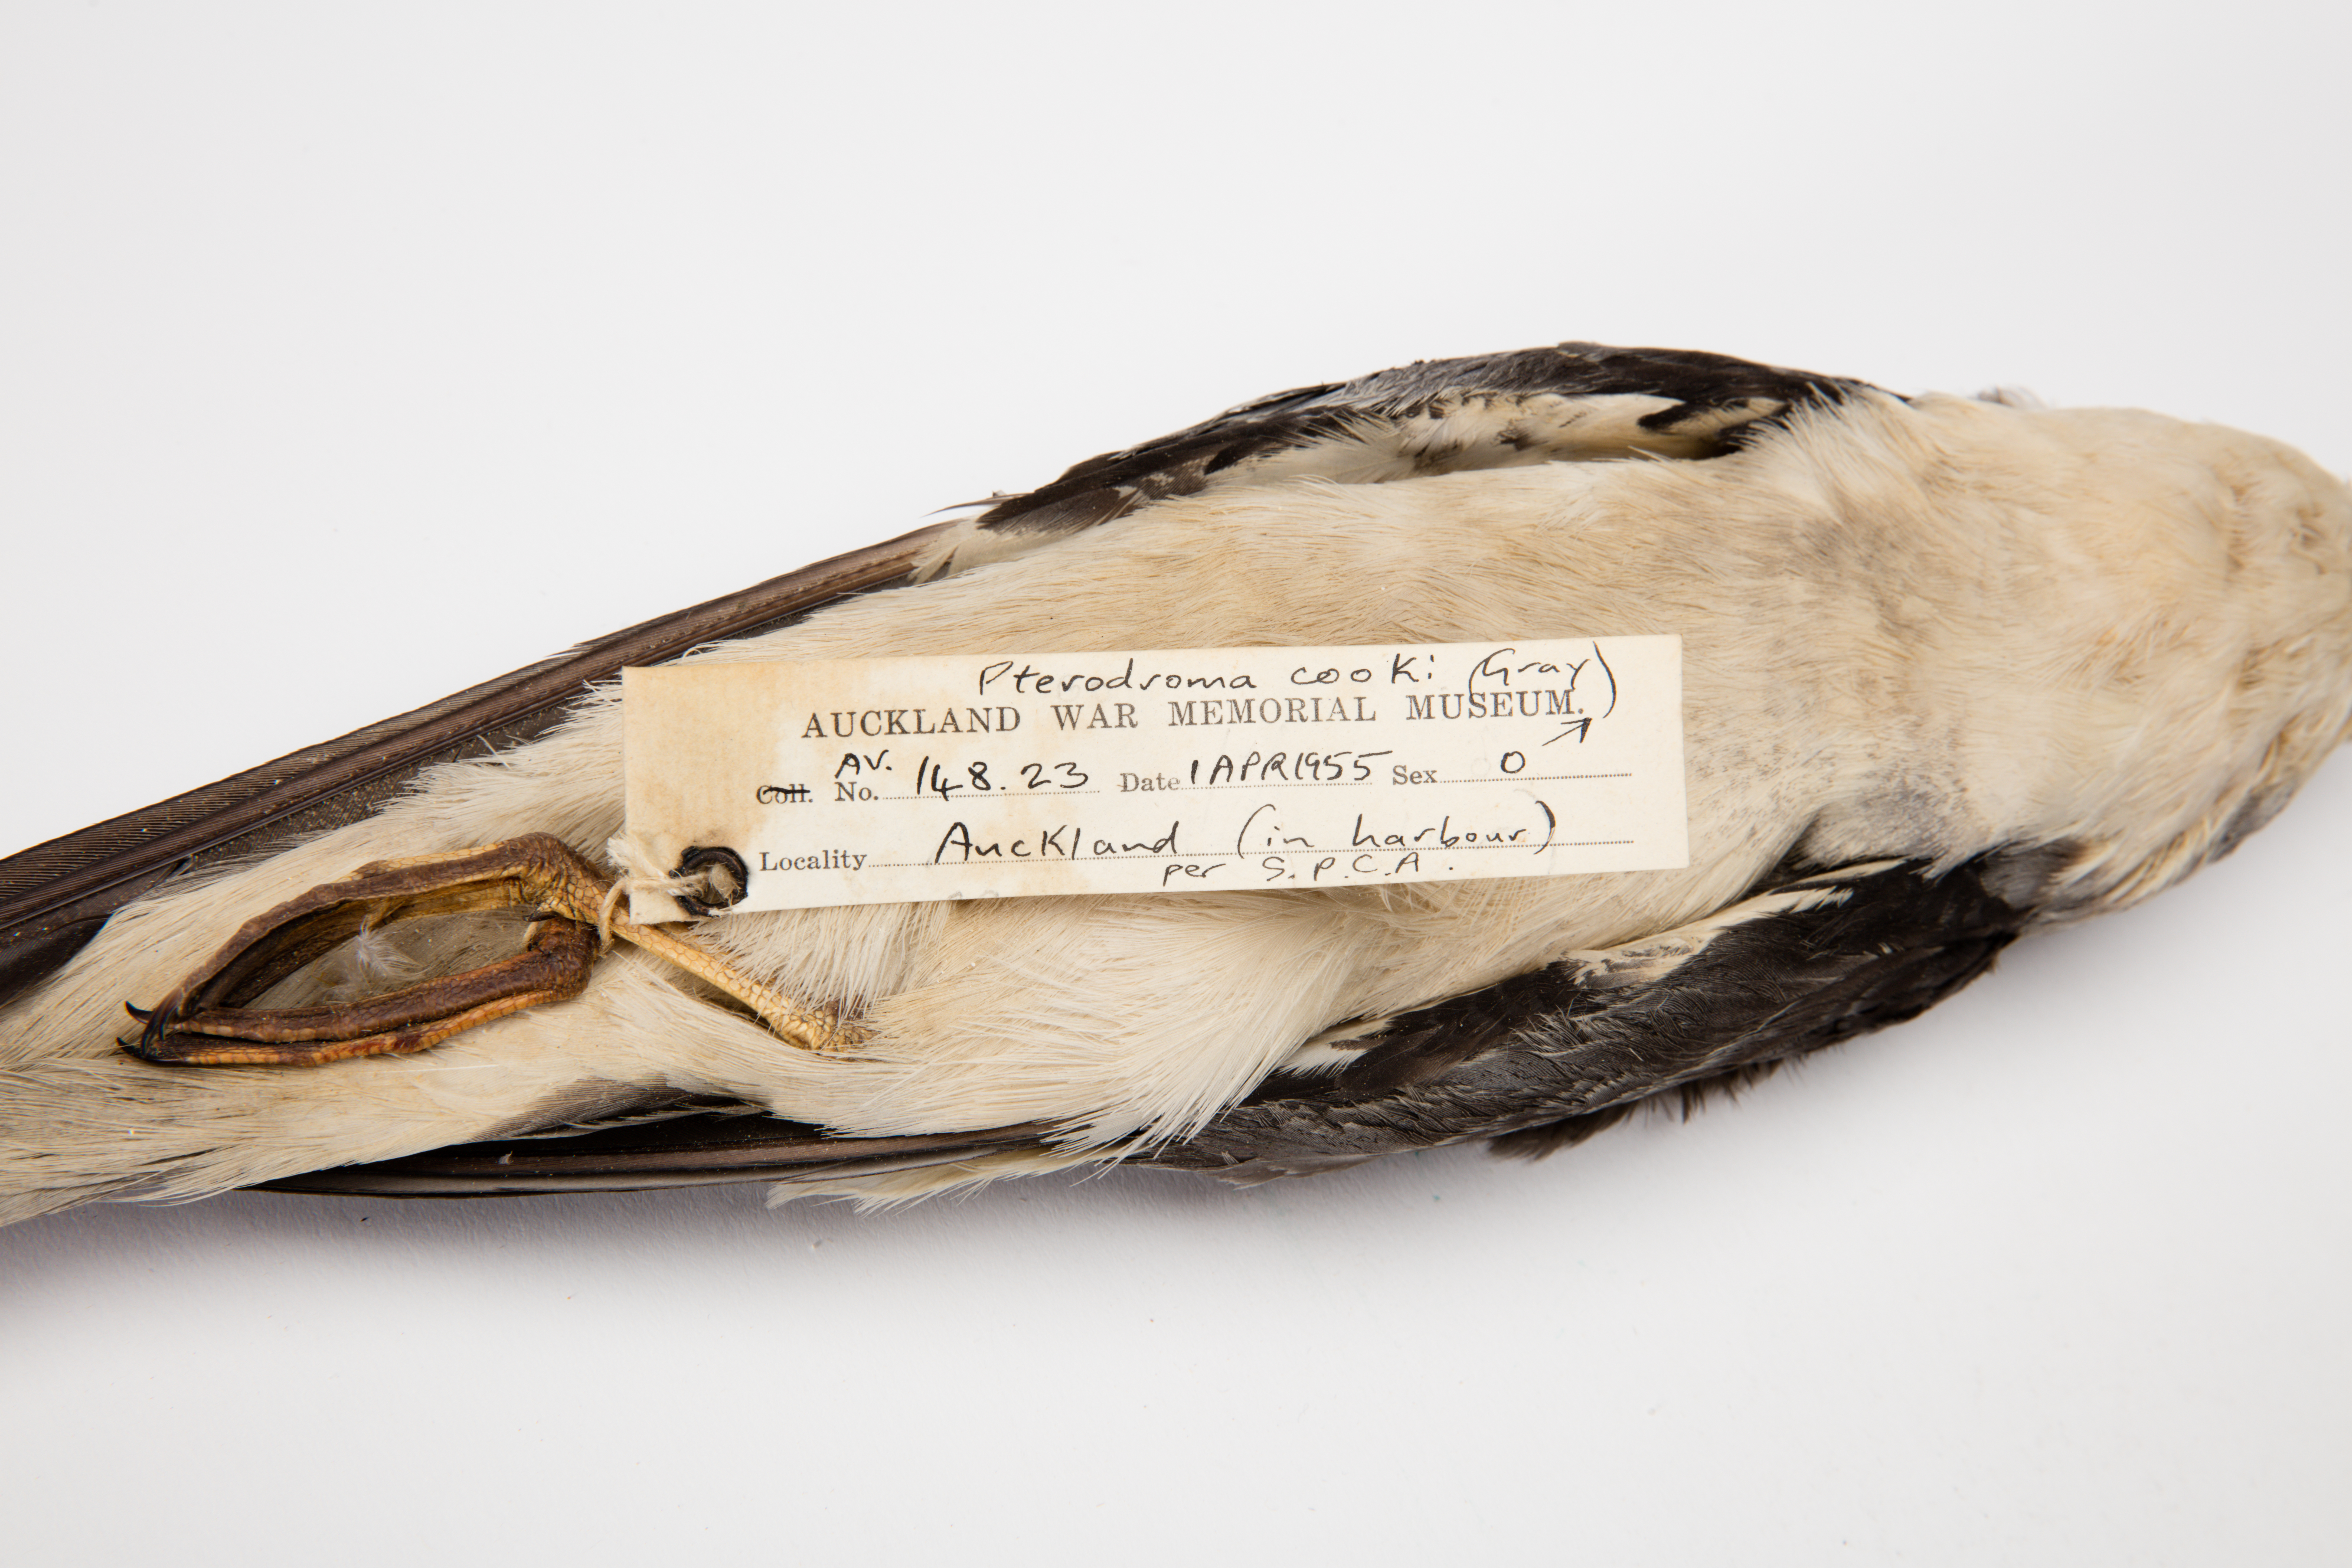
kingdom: Animalia
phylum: Chordata
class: Aves
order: Procellariiformes
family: Procellariidae
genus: Pterodroma
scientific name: Pterodroma cookii
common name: Cook's petrel
